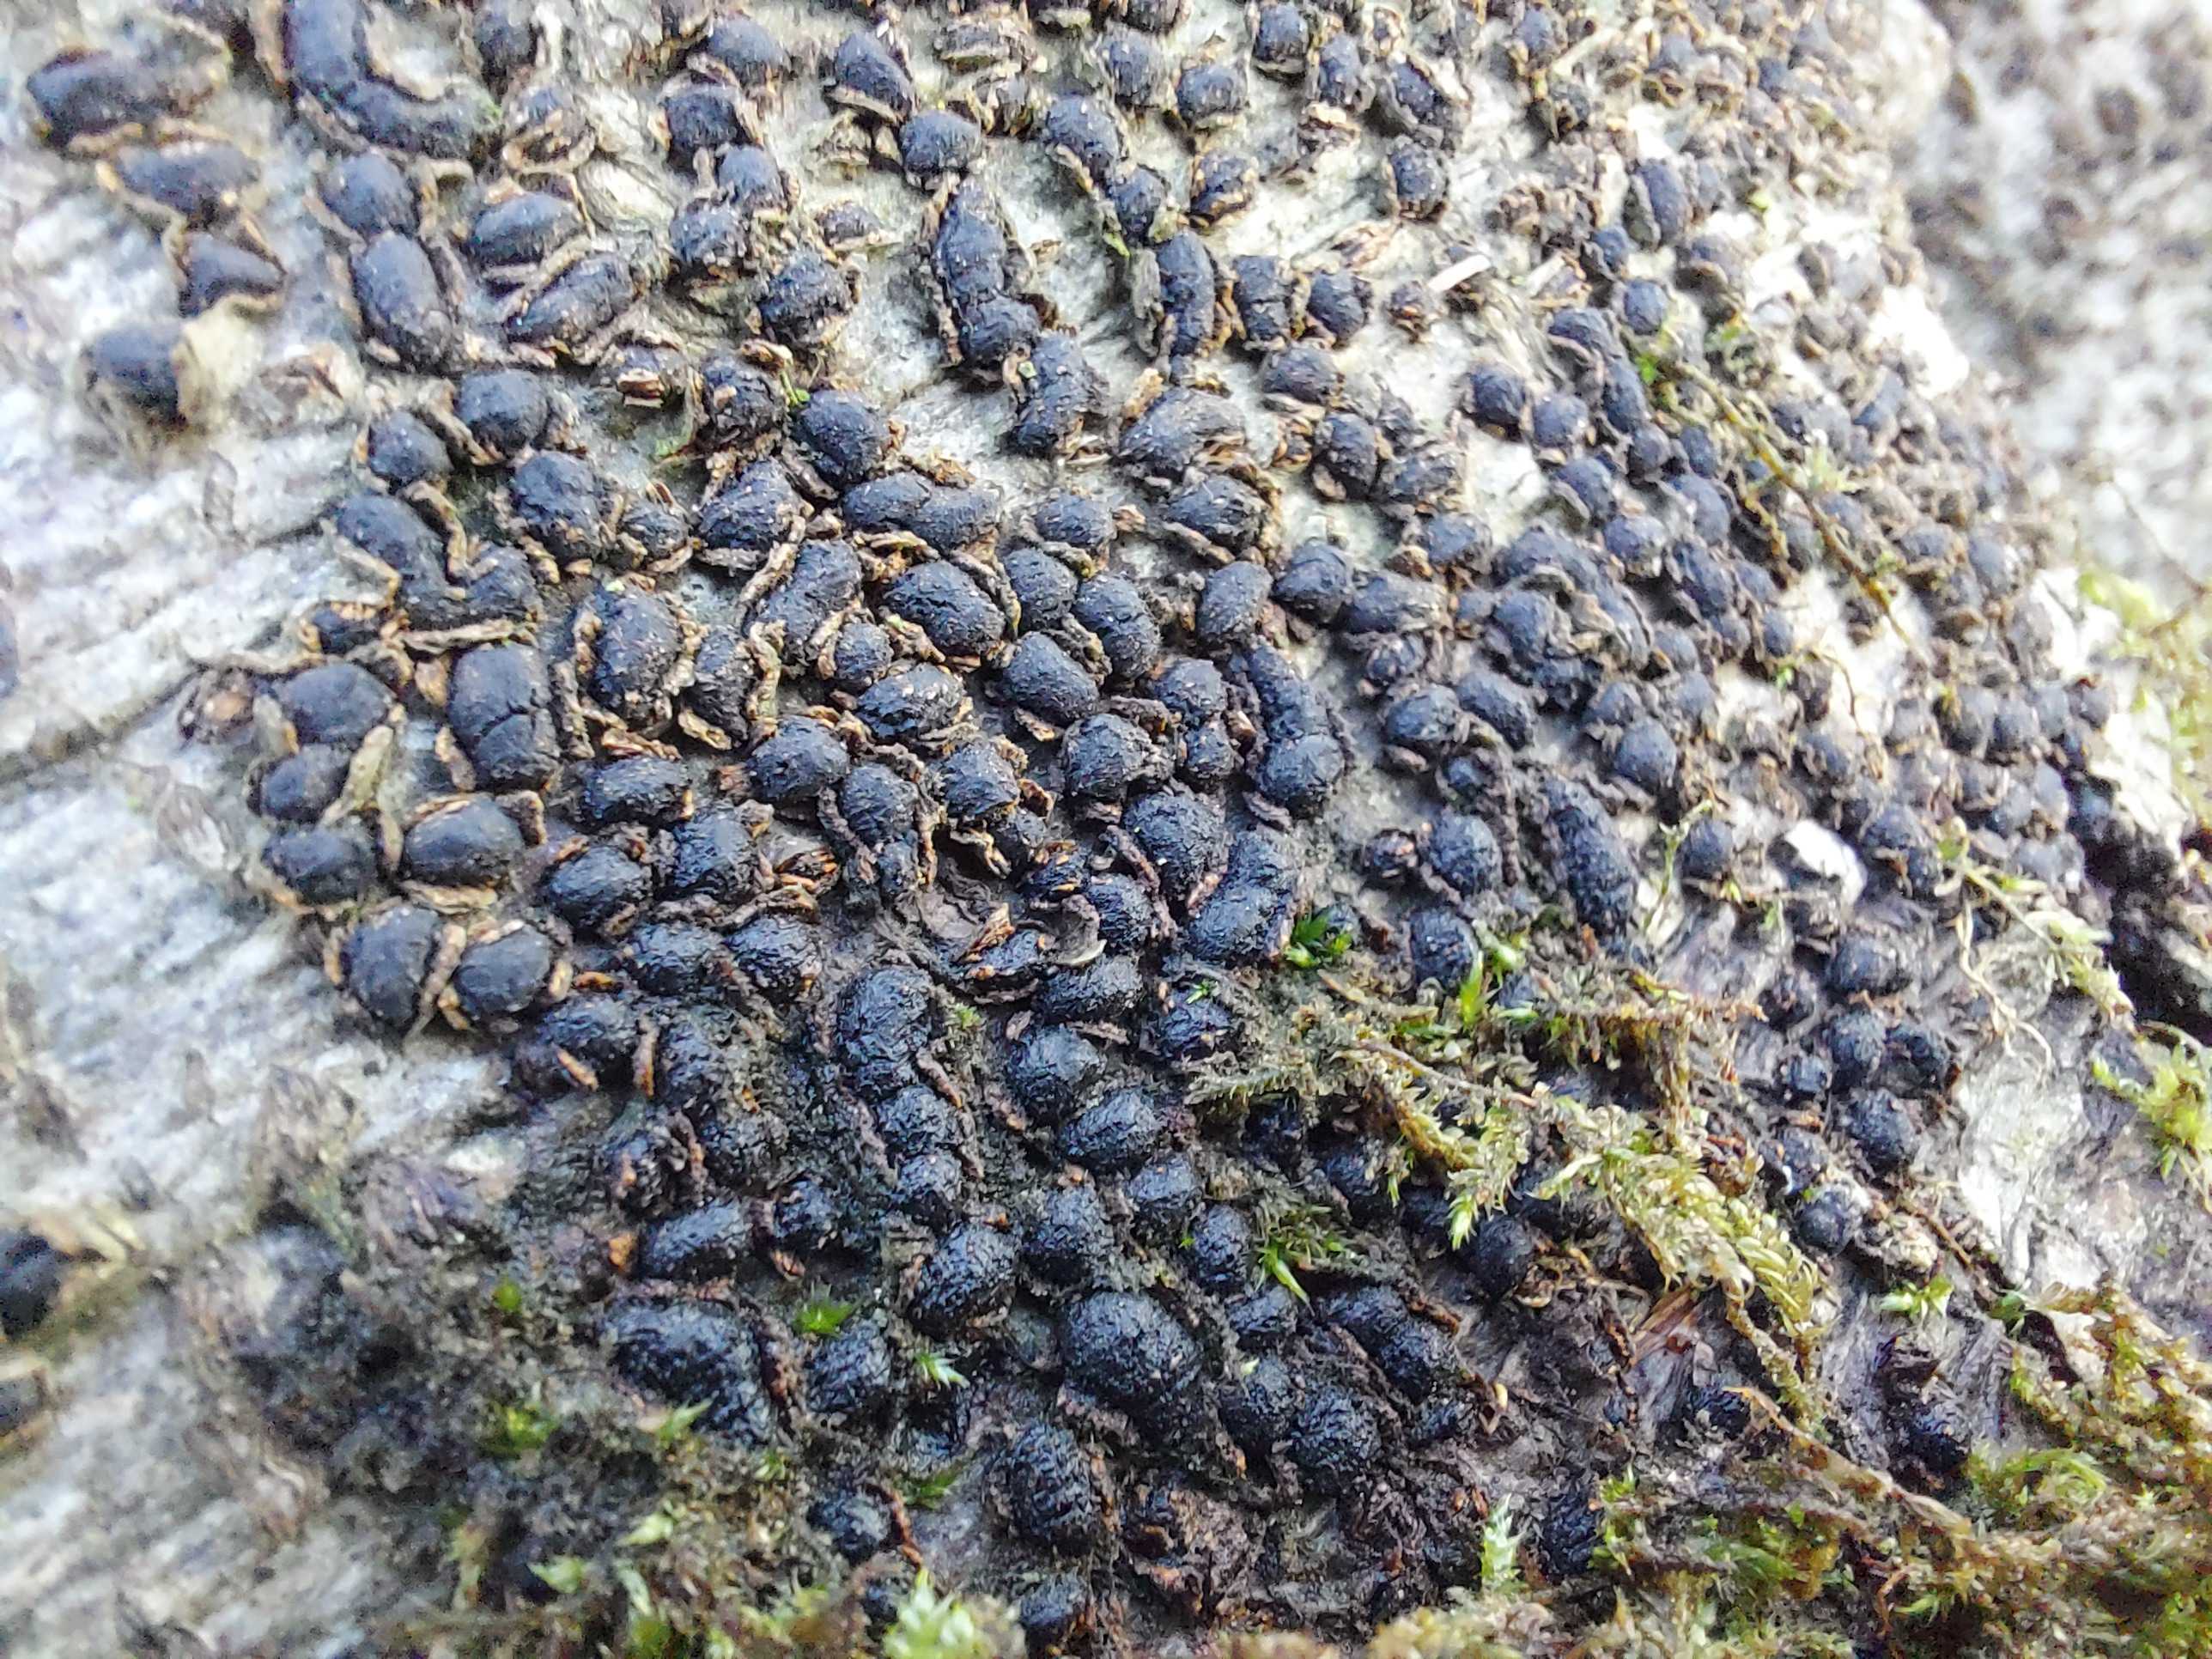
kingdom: Fungi
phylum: Ascomycota
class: Sordariomycetes
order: Xylariales
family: Melogrammataceae
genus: Melogramma
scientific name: Melogramma spiniferum
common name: bøgefod-kulhals
